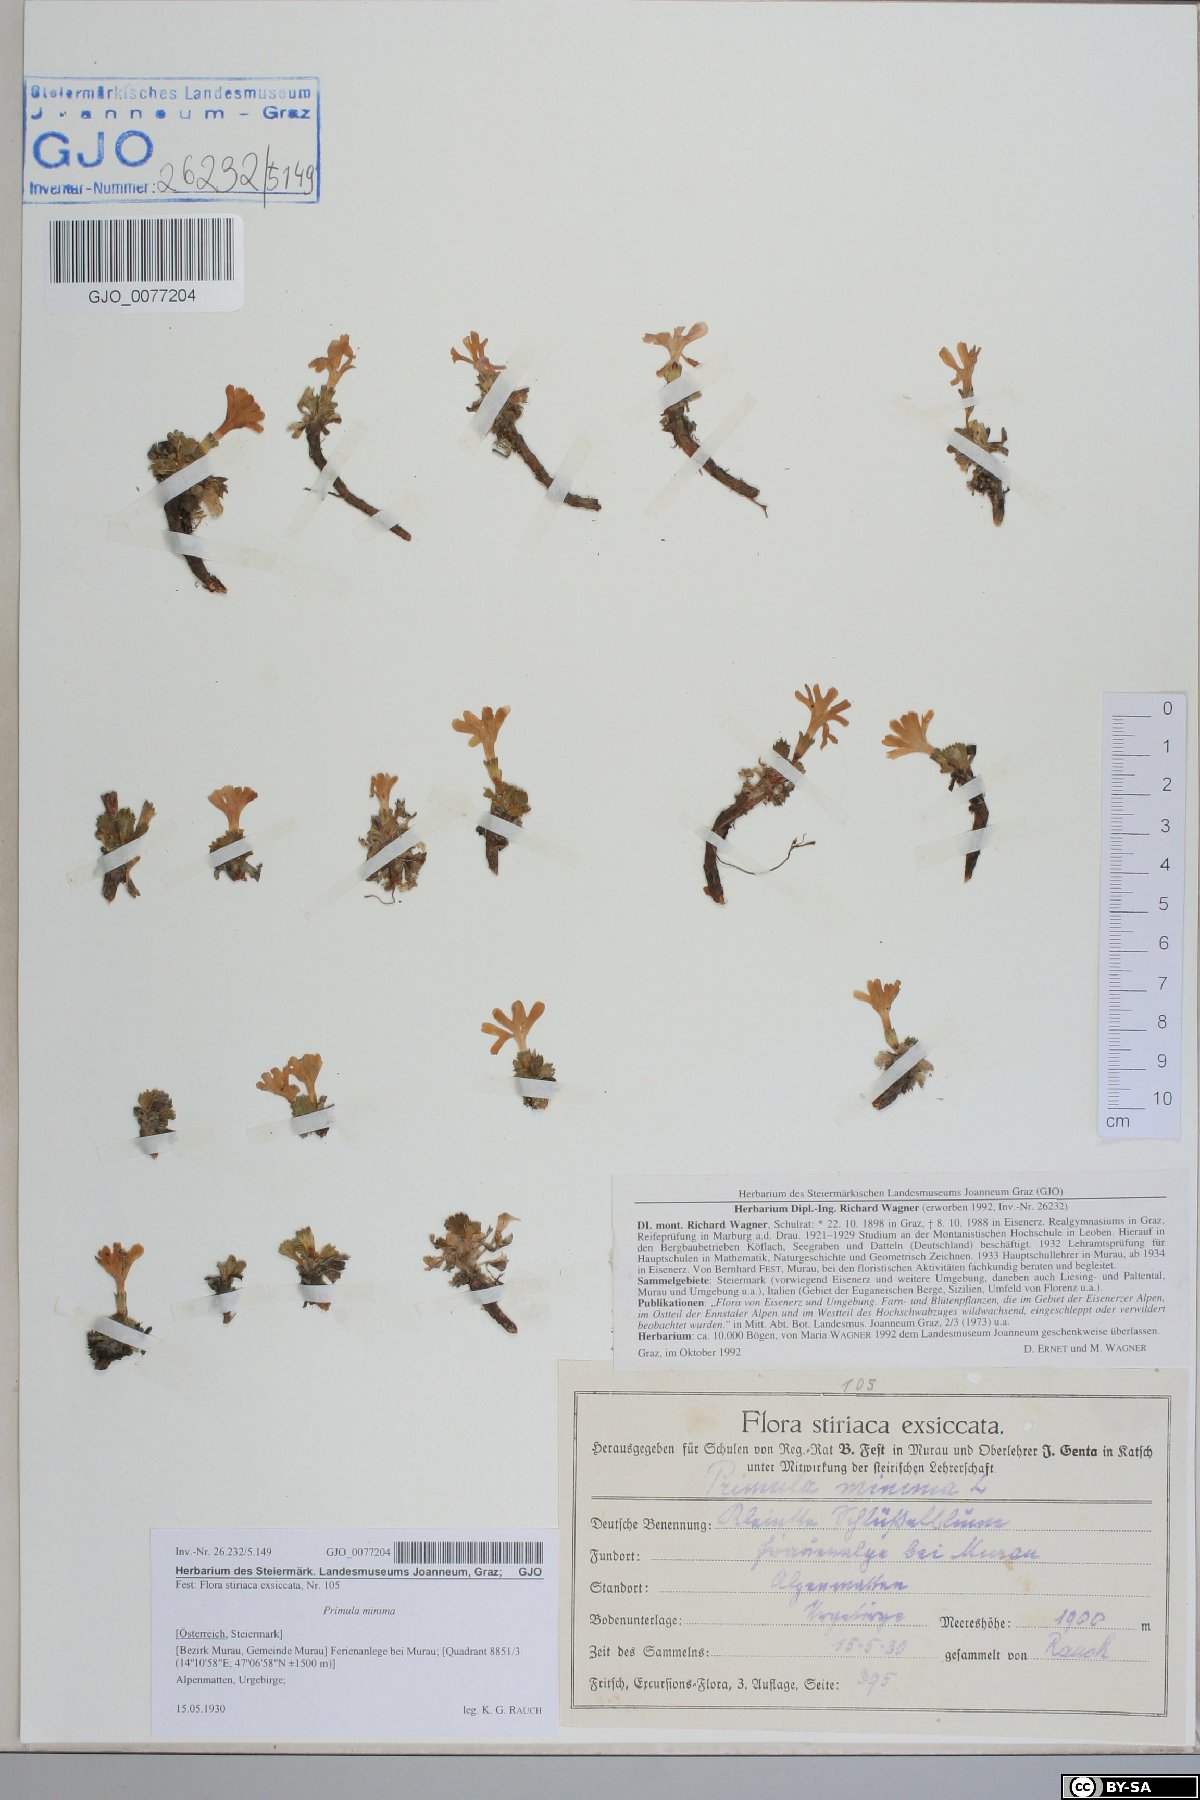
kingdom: Plantae
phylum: Tracheophyta
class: Magnoliopsida
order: Ericales
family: Primulaceae
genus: Primula
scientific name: Primula minima
